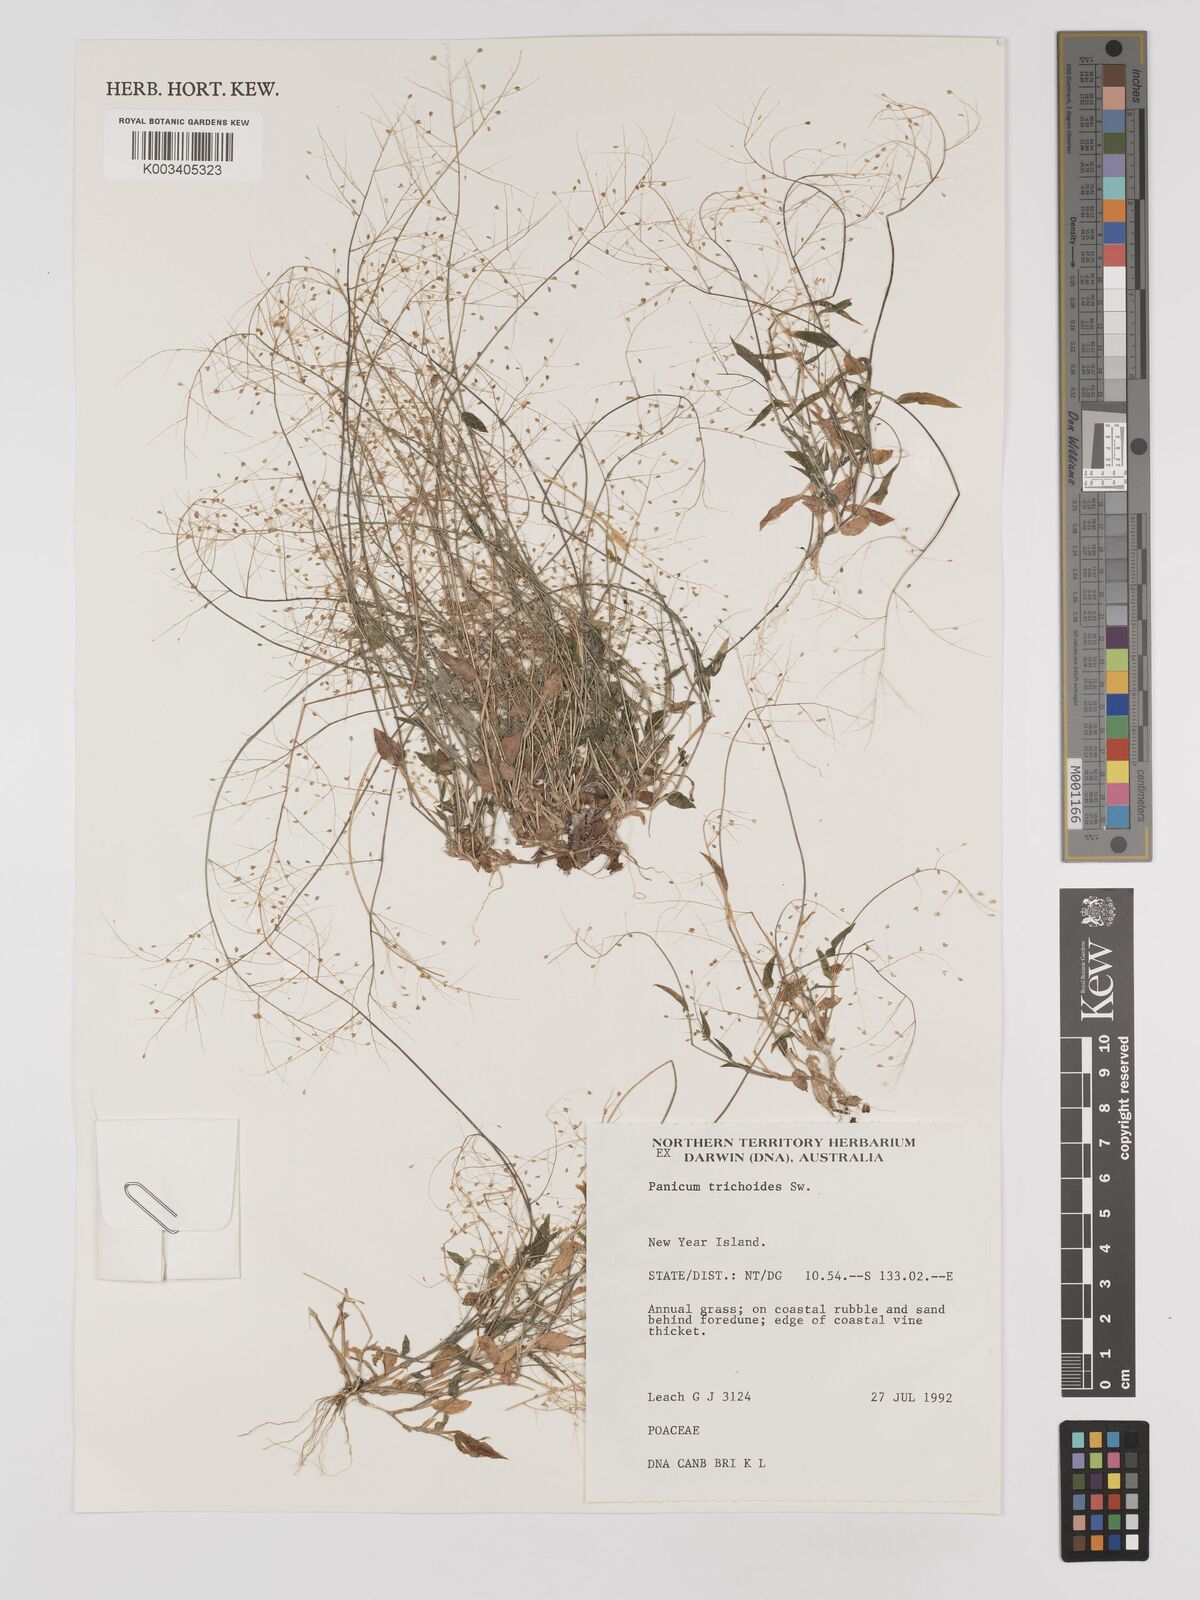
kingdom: Plantae
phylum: Tracheophyta
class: Liliopsida
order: Poales
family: Poaceae
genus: Panicum
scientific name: Panicum trichoides
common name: Tickle grass
